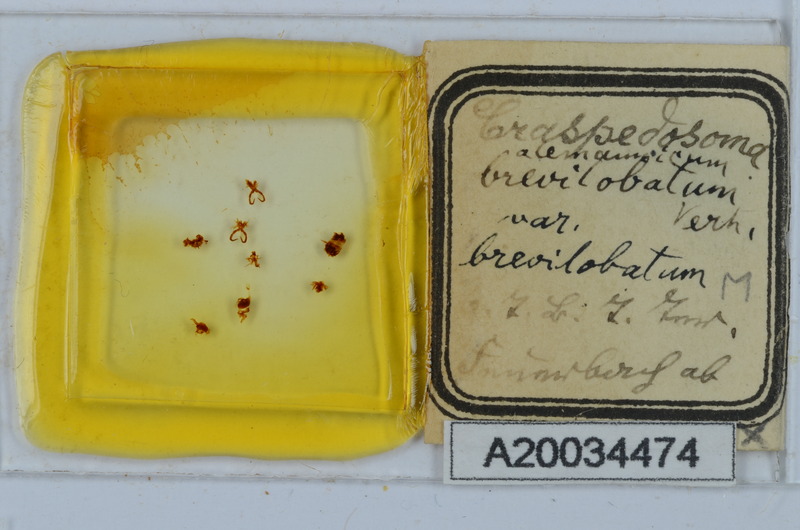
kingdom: Animalia
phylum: Arthropoda
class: Diplopoda
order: Chordeumatida
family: Craspedosomatidae
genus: Craspedosoma
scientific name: Craspedosoma rawlinsii
